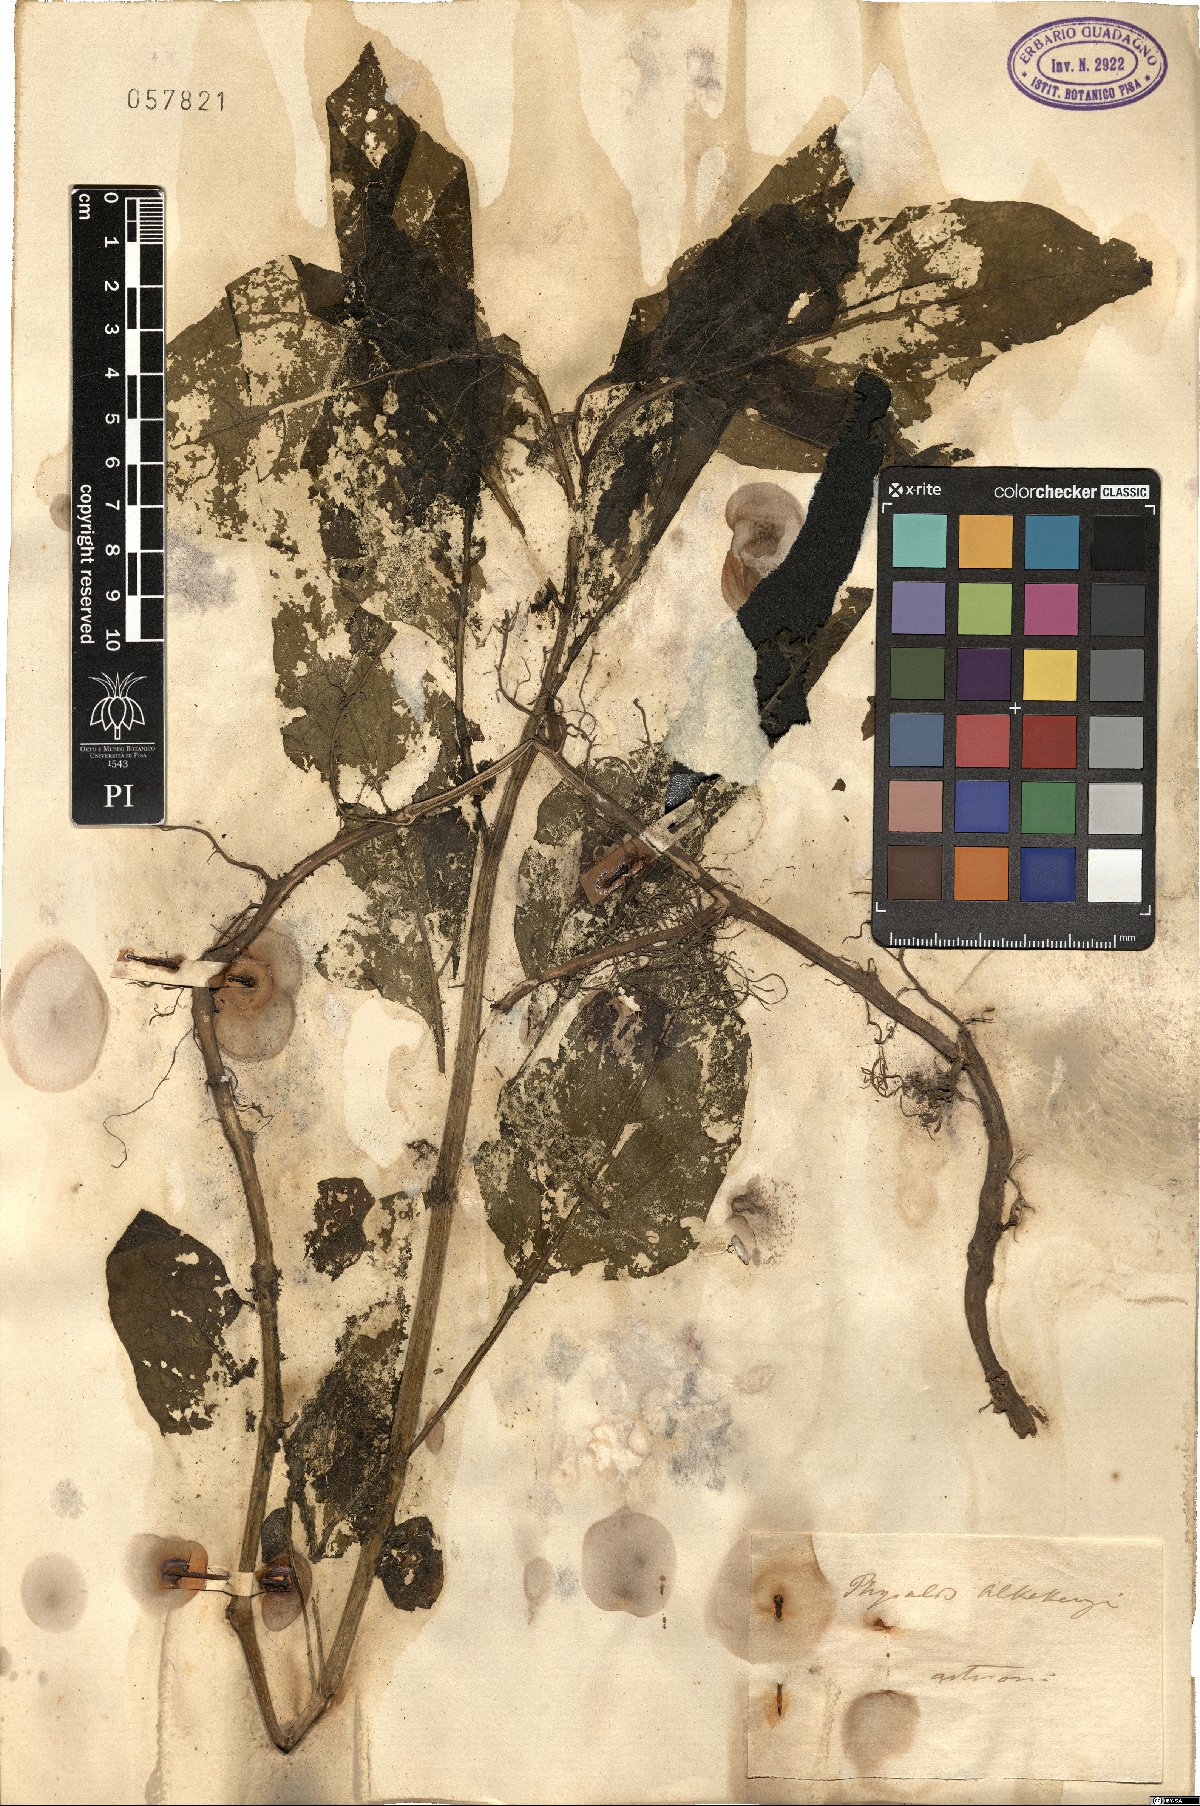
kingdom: Plantae
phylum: Tracheophyta
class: Magnoliopsida
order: Solanales
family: Solanaceae
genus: Alkekengi
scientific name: Alkekengi officinarum
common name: Japanese-lantern
